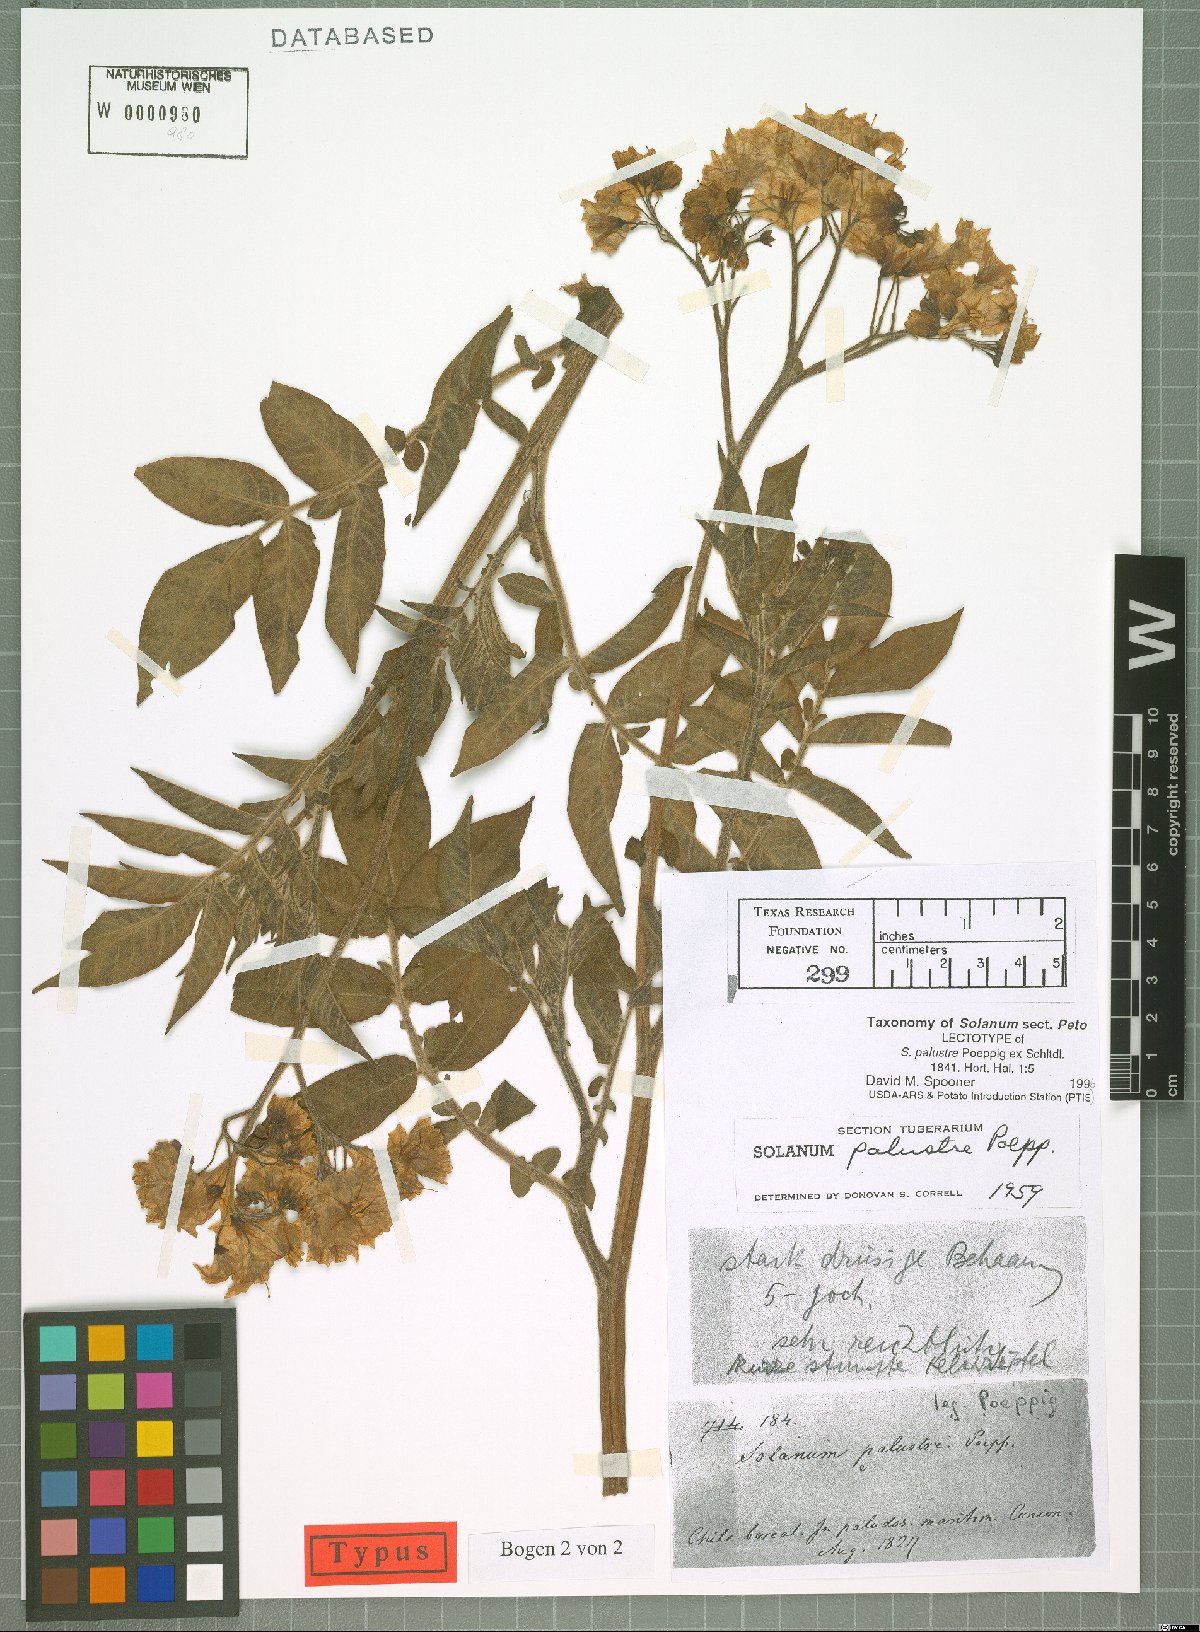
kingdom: Plantae
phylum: Tracheophyta
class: Magnoliopsida
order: Solanales
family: Solanaceae
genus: Solanum
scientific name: Solanum palustre
